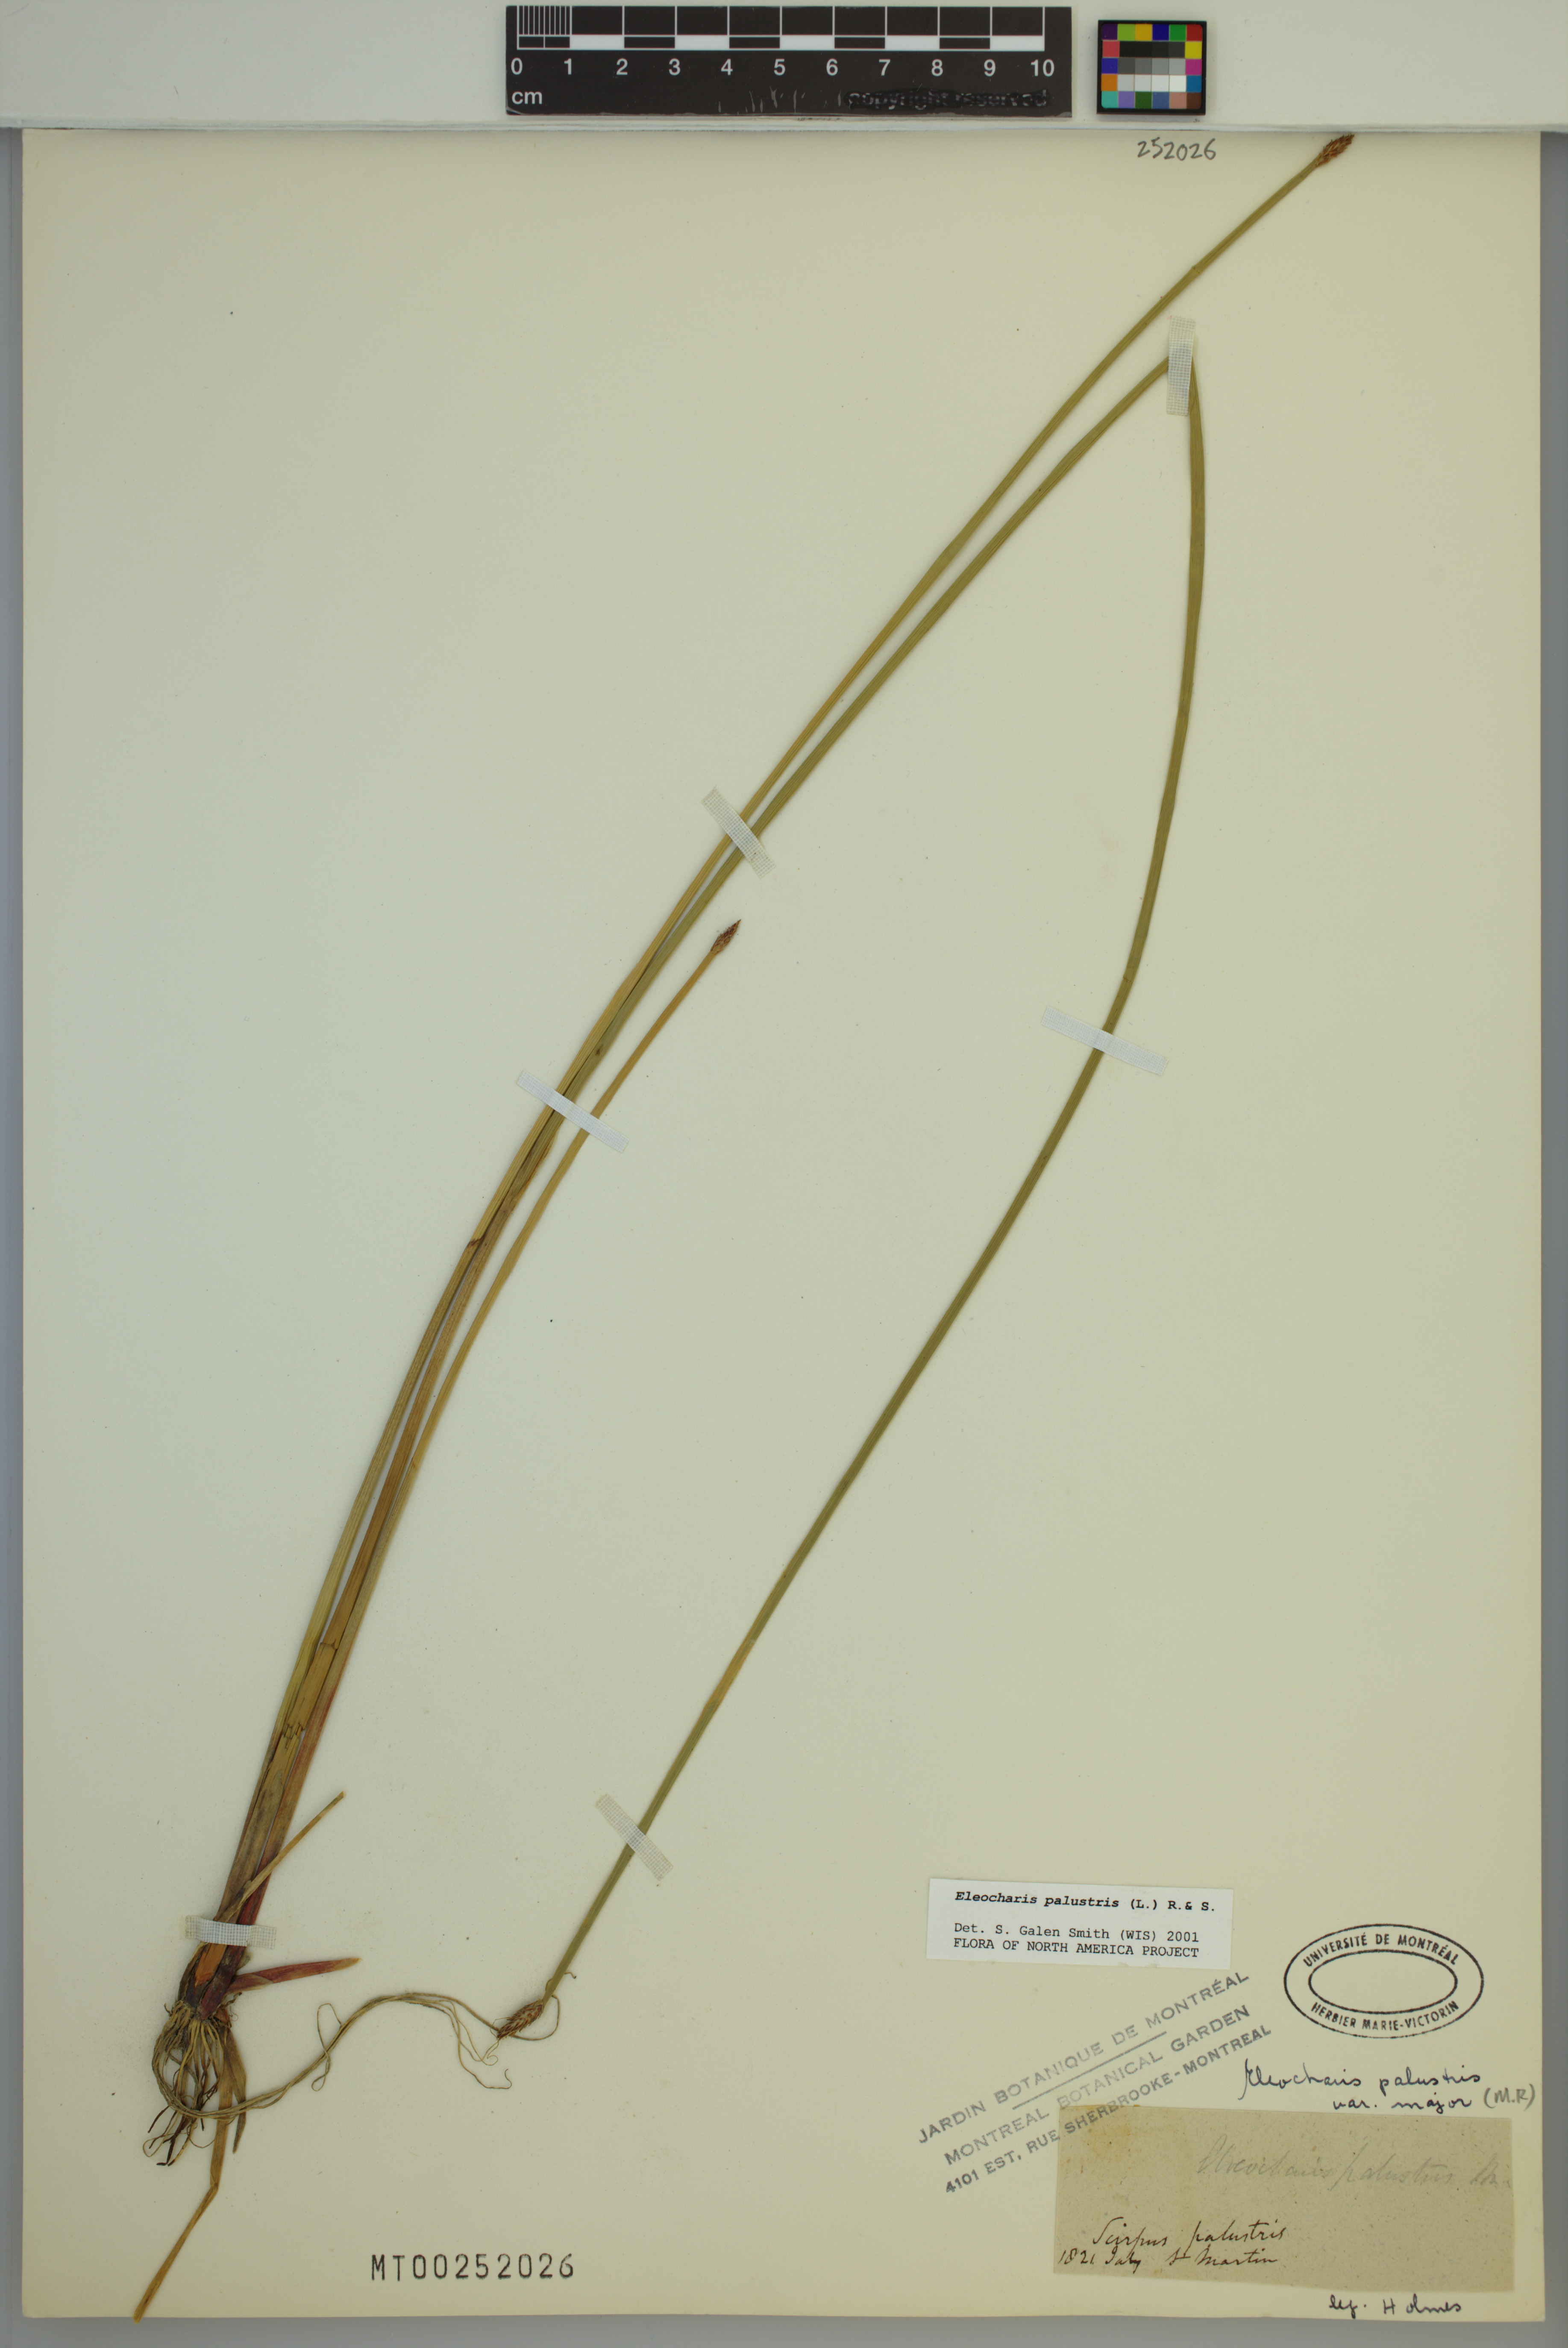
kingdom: Plantae
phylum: Tracheophyta
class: Liliopsida
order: Poales
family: Cyperaceae
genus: Eleocharis
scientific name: Eleocharis palustris
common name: Common spike-rush
